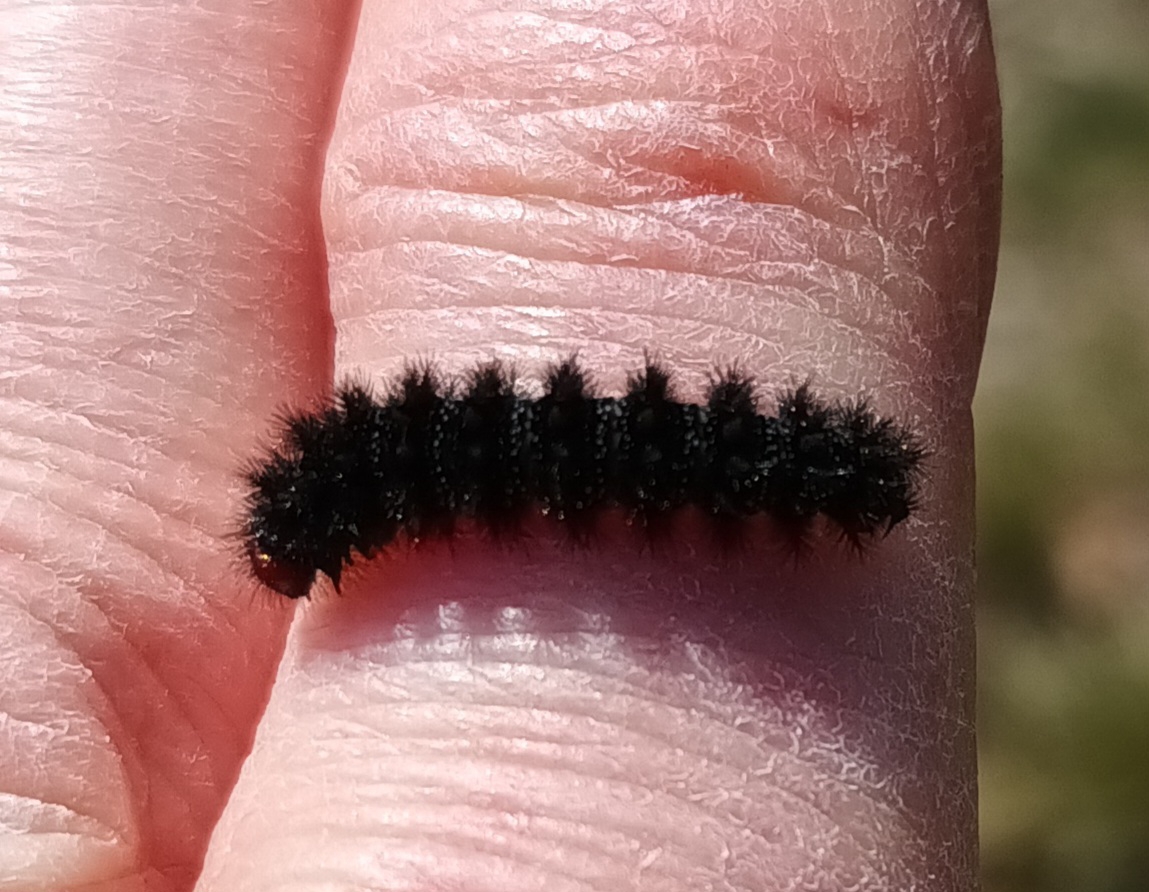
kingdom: Animalia
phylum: Arthropoda
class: Insecta
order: Lepidoptera
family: Nymphalidae
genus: Melitaea
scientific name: Melitaea cinxia
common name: Okkergul pletvinge
